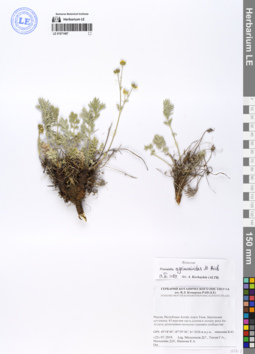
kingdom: Plantae
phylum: Tracheophyta
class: Magnoliopsida
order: Rosales
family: Rosaceae
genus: Potentilla
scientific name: Potentilla agrimonioides
